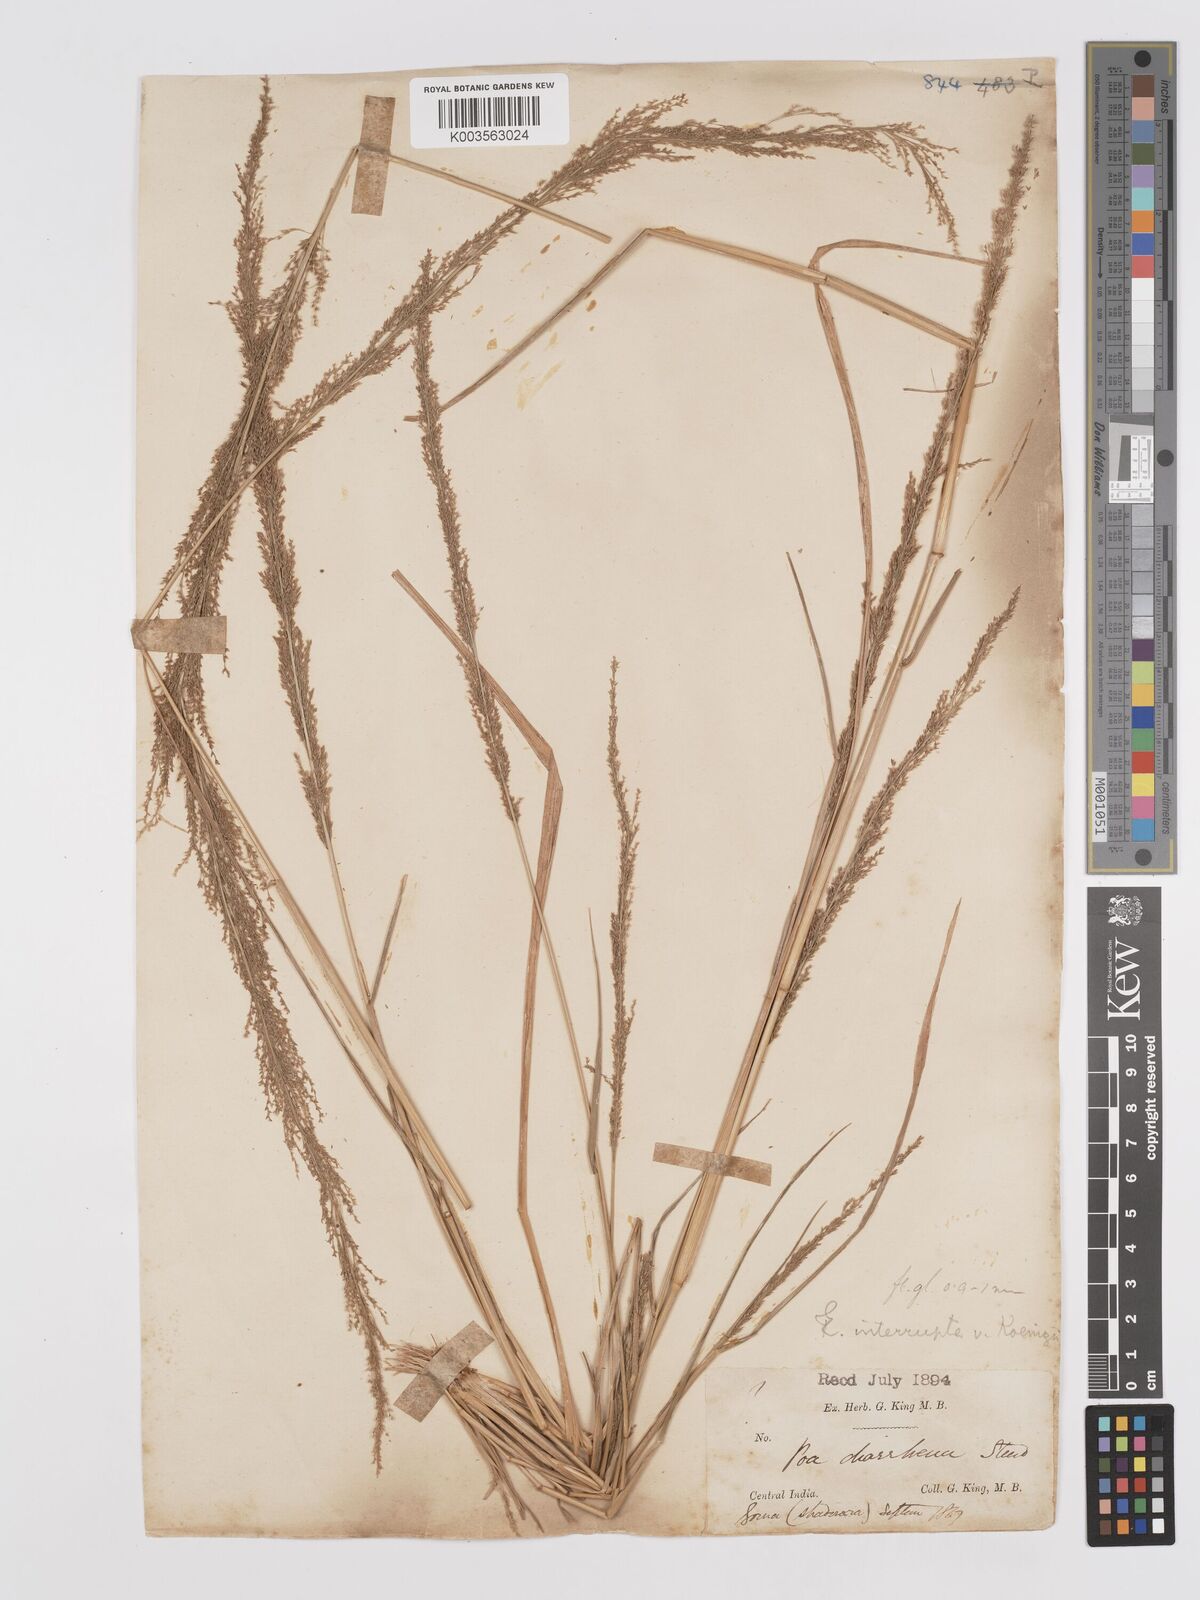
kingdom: Plantae
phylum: Tracheophyta
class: Liliopsida
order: Poales
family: Poaceae
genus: Eragrostis
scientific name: Eragrostis japonica
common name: Pond lovegrass
